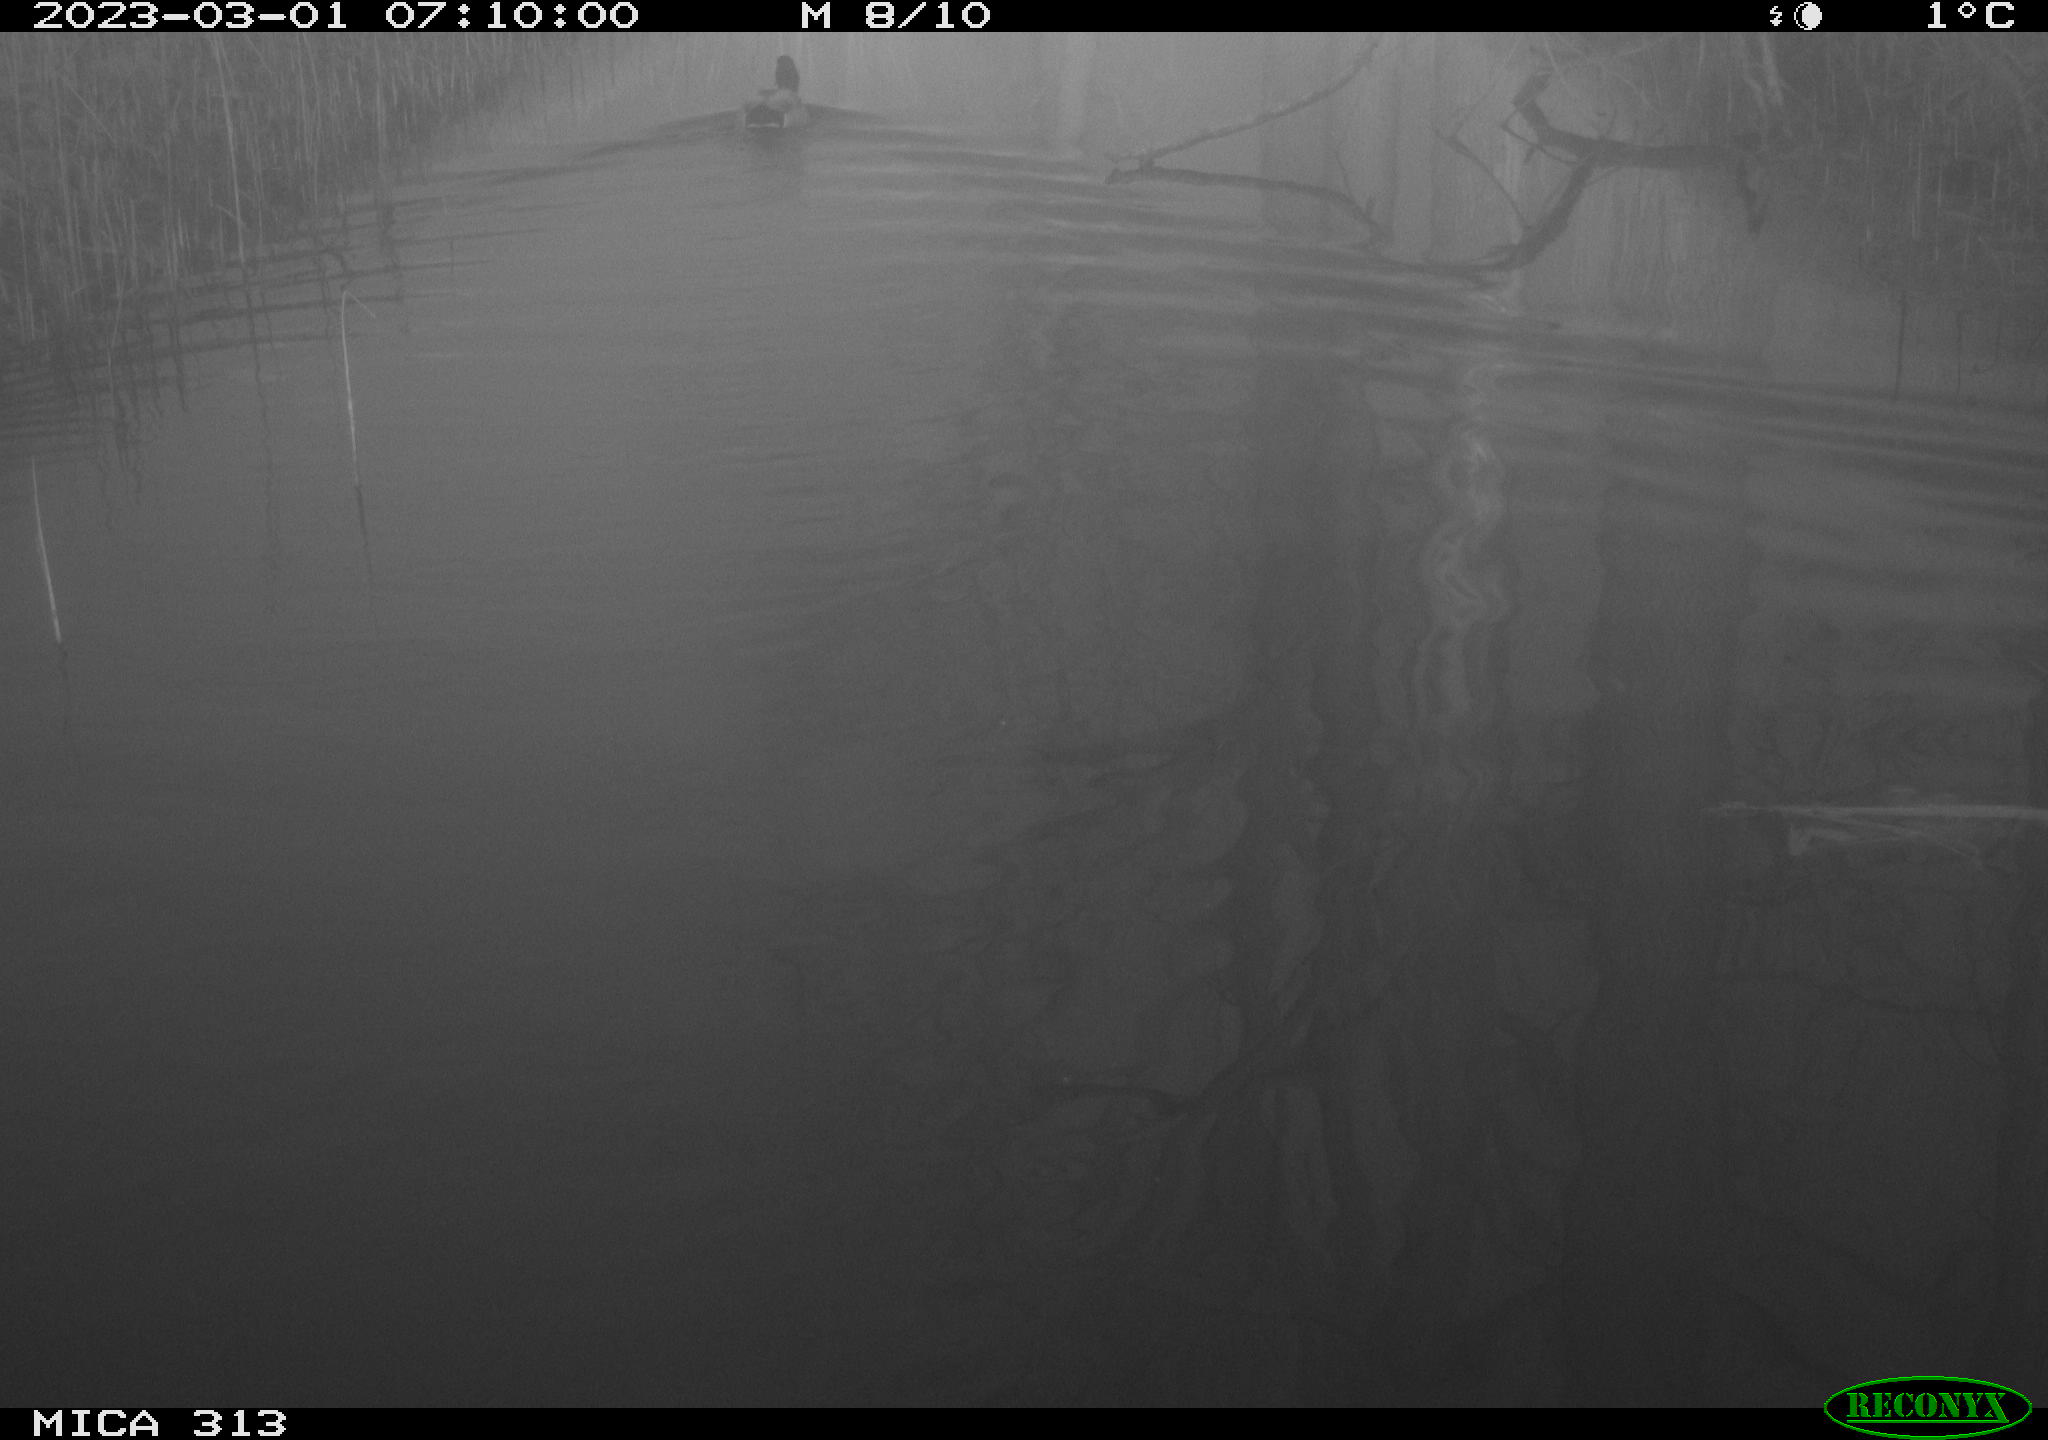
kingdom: Animalia
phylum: Chordata
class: Aves
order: Anseriformes
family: Anatidae
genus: Anas
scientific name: Anas
